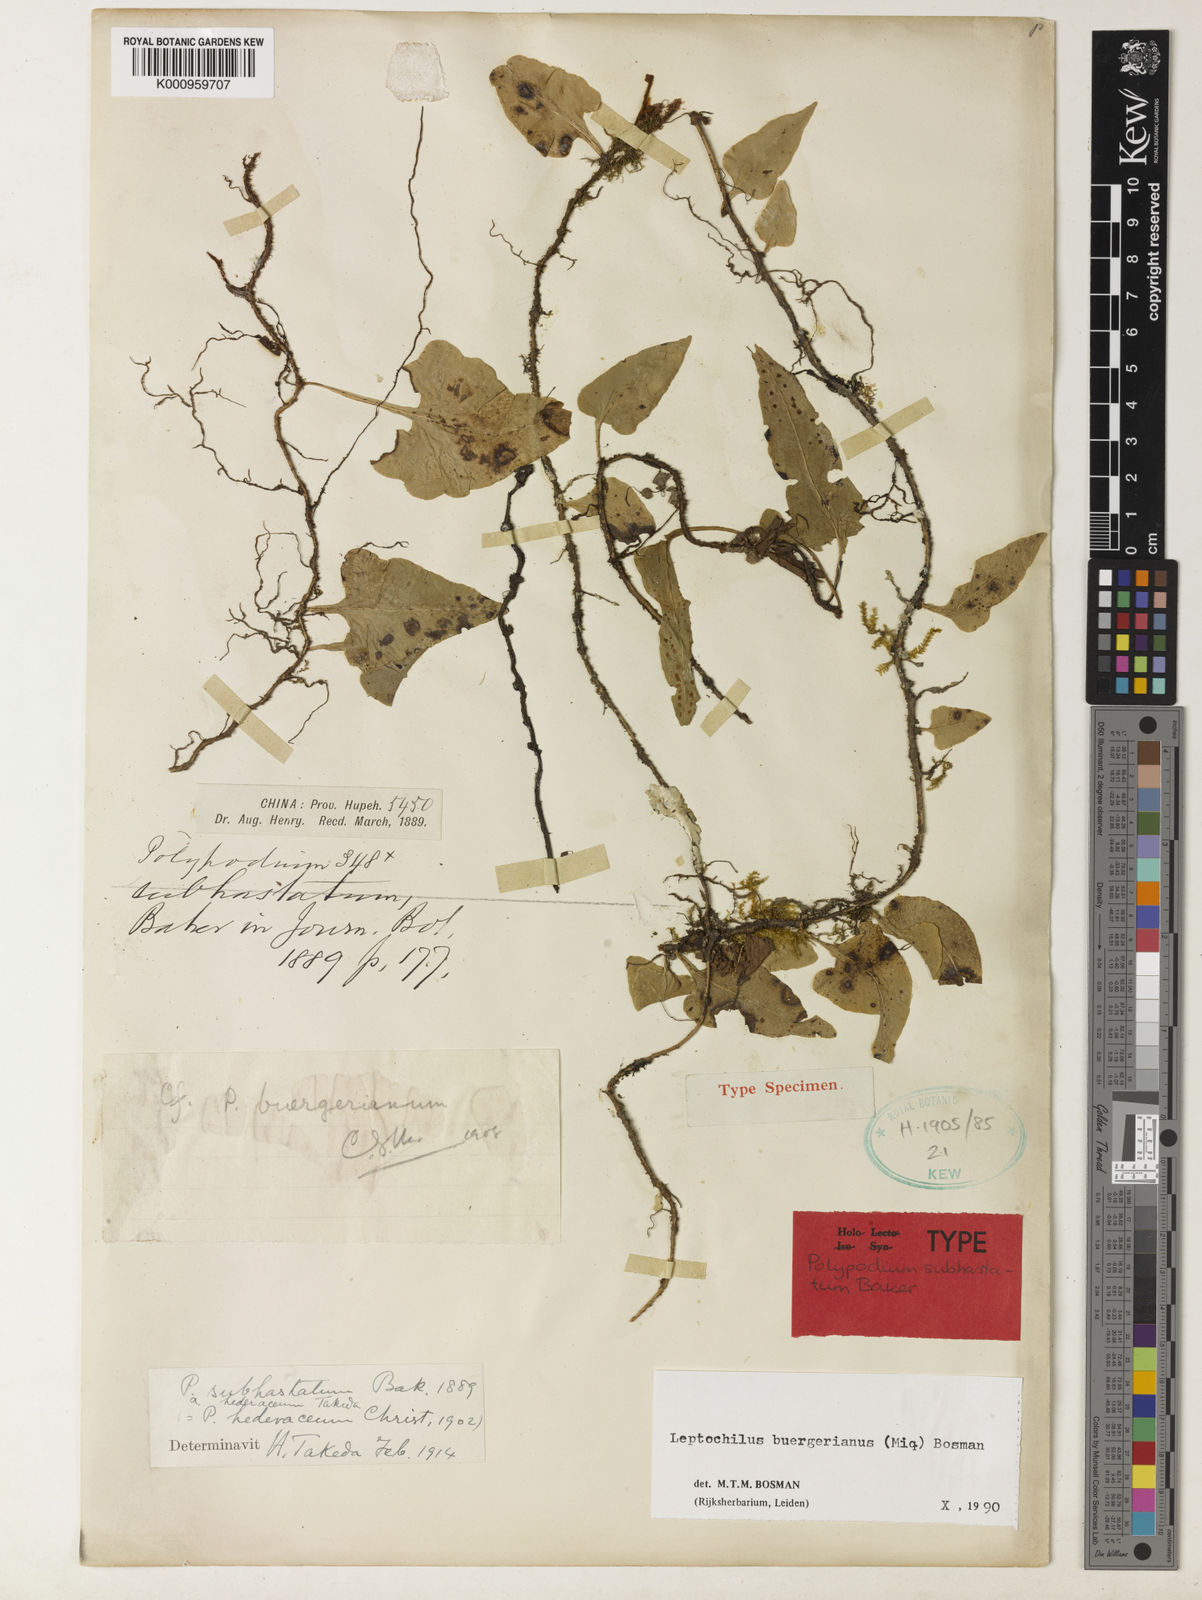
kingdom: Plantae
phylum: Tracheophyta
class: Polypodiopsida
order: Polypodiales
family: Polypodiaceae
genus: Lepisorus
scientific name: Lepisorus buergerianus
